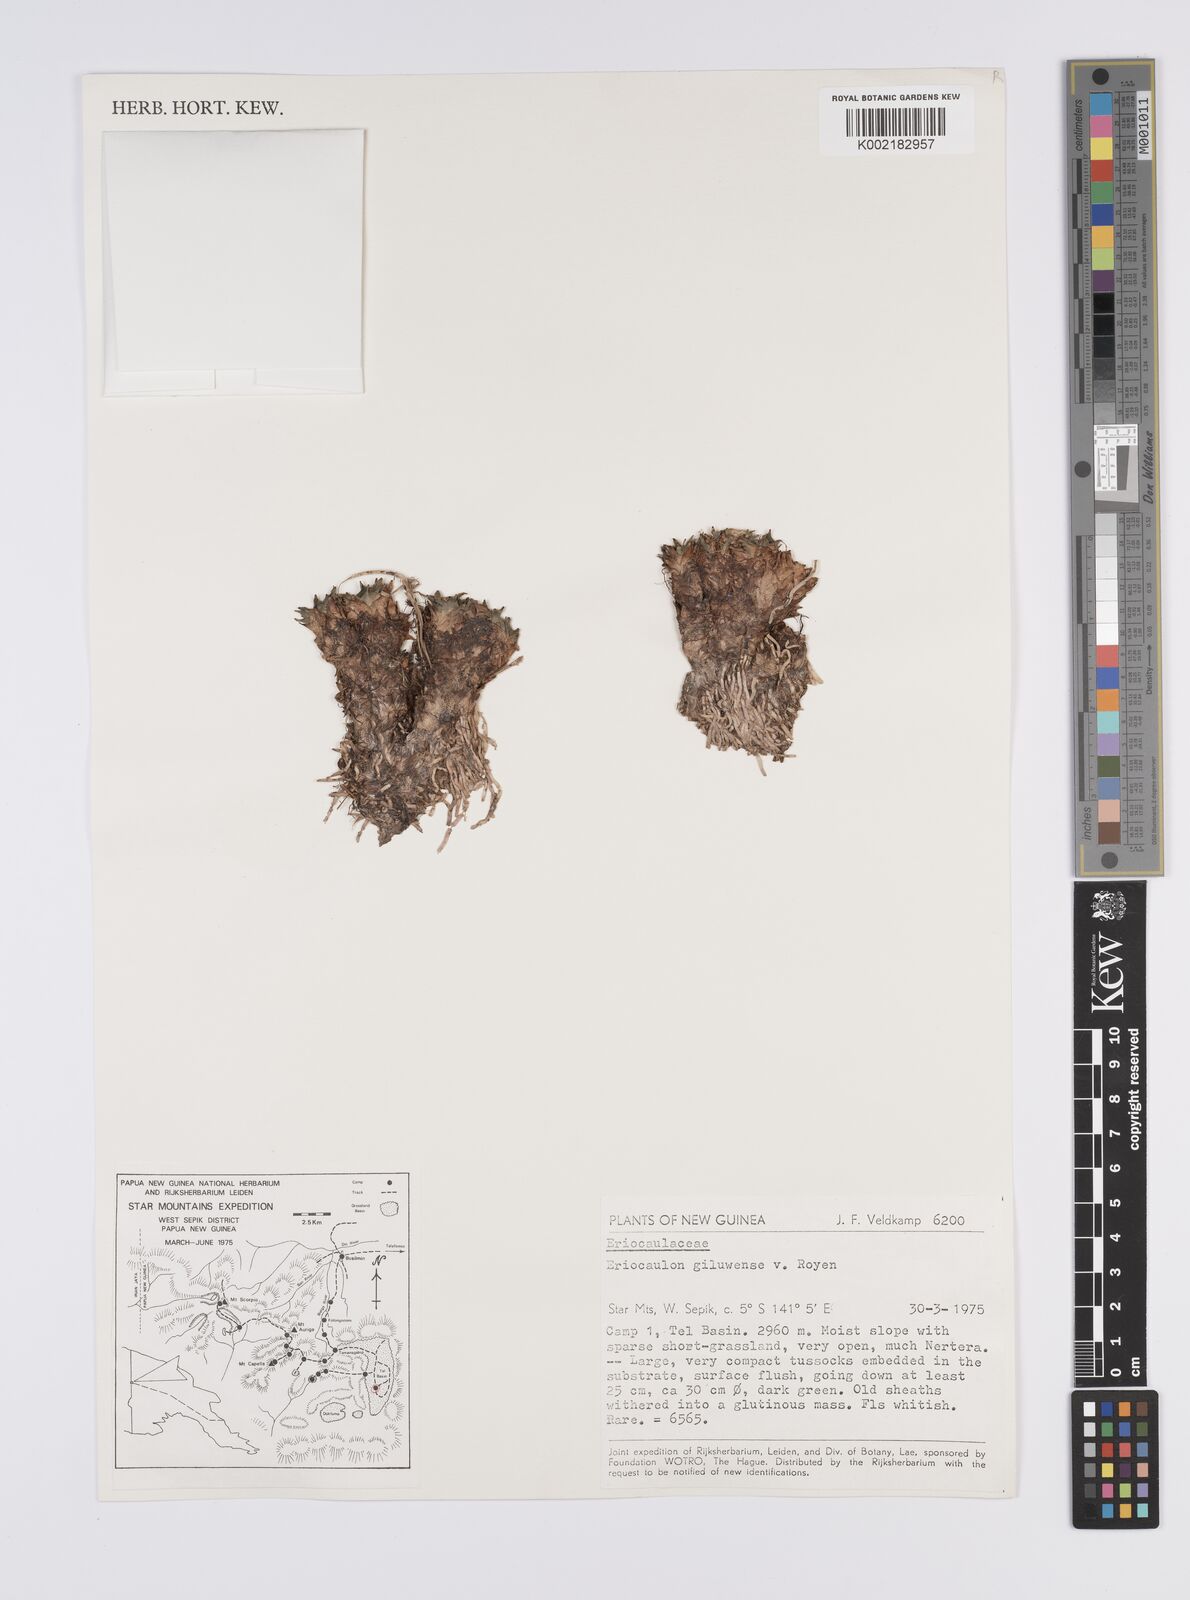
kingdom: Plantae
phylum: Tracheophyta
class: Liliopsida
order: Poales
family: Eriocaulaceae
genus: Eriocaulon
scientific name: Eriocaulon giluwense
